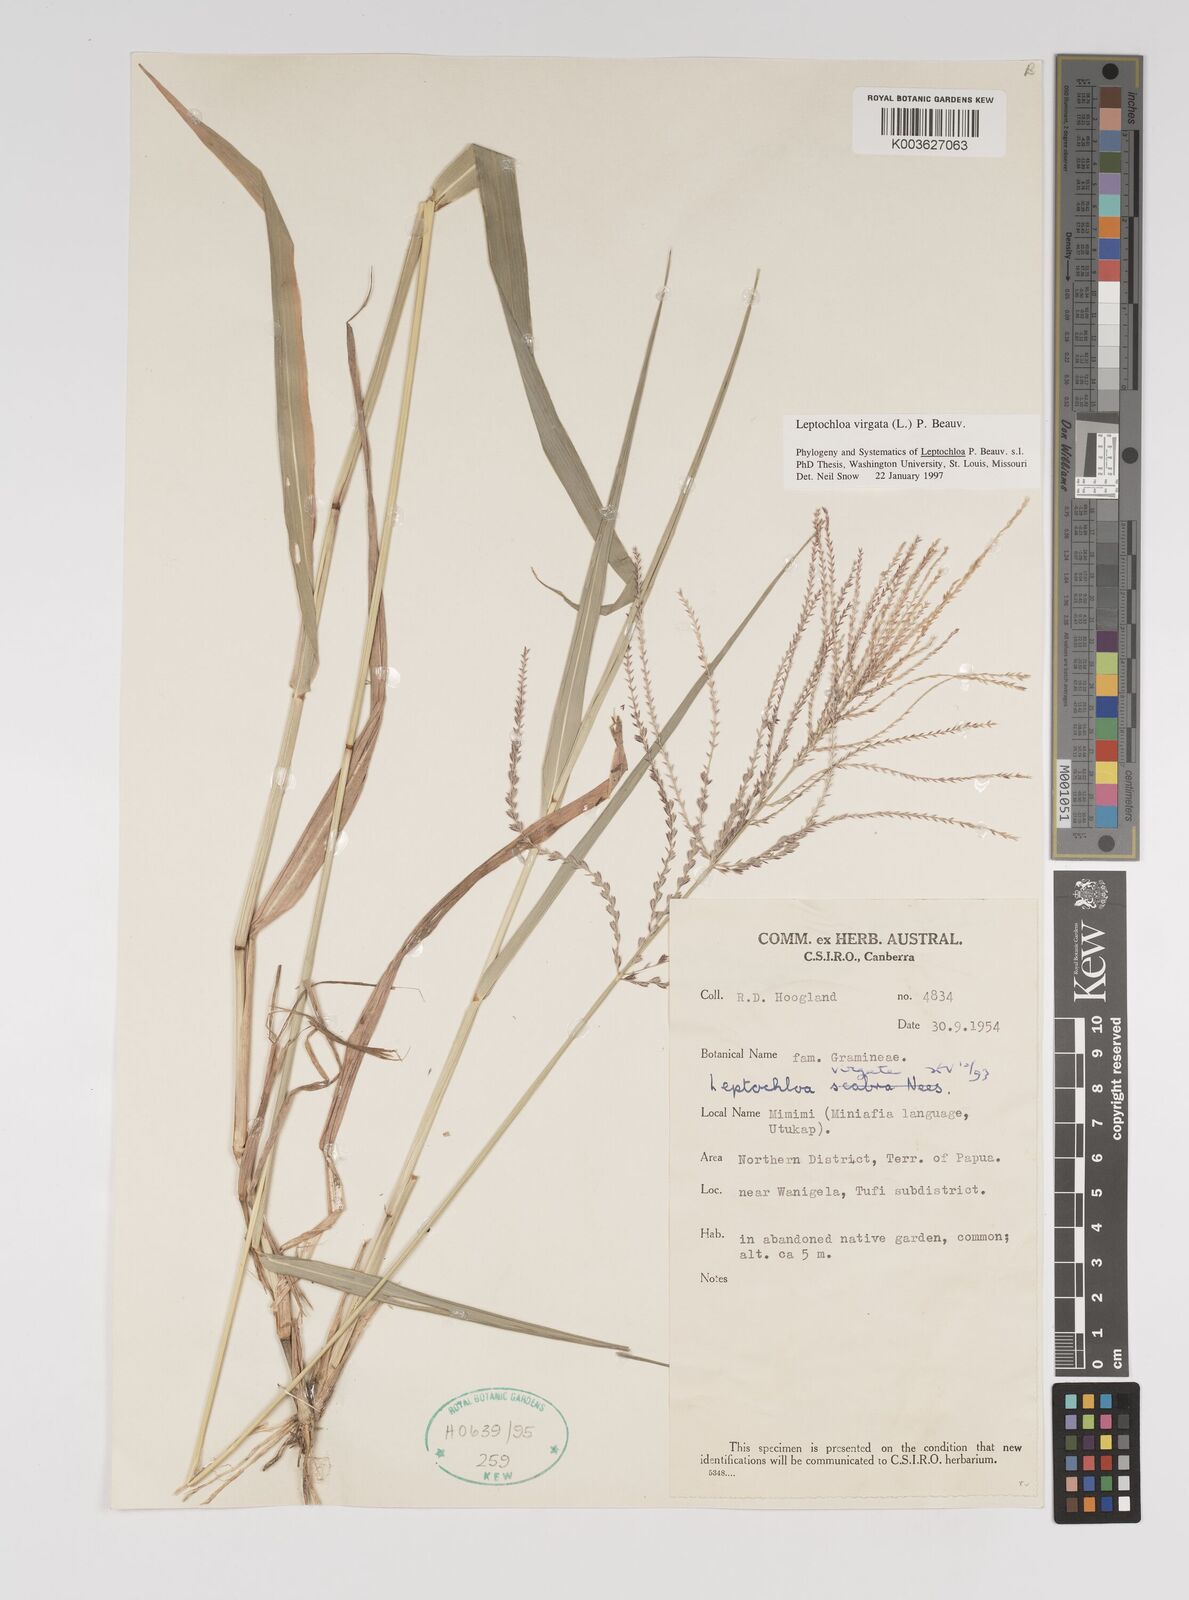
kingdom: Plantae
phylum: Tracheophyta
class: Liliopsida
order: Poales
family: Poaceae
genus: Leptochloa
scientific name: Leptochloa
